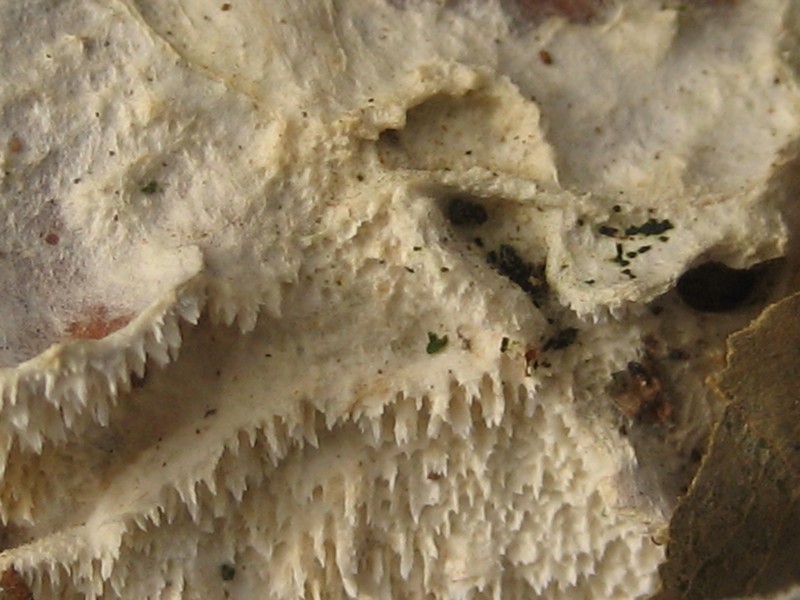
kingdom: Fungi
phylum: Basidiomycota
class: Agaricomycetes
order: Hymenochaetales
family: Schizoporaceae
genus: Schizopora
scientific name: Schizopora paradoxa
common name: hvid tandsvamp
